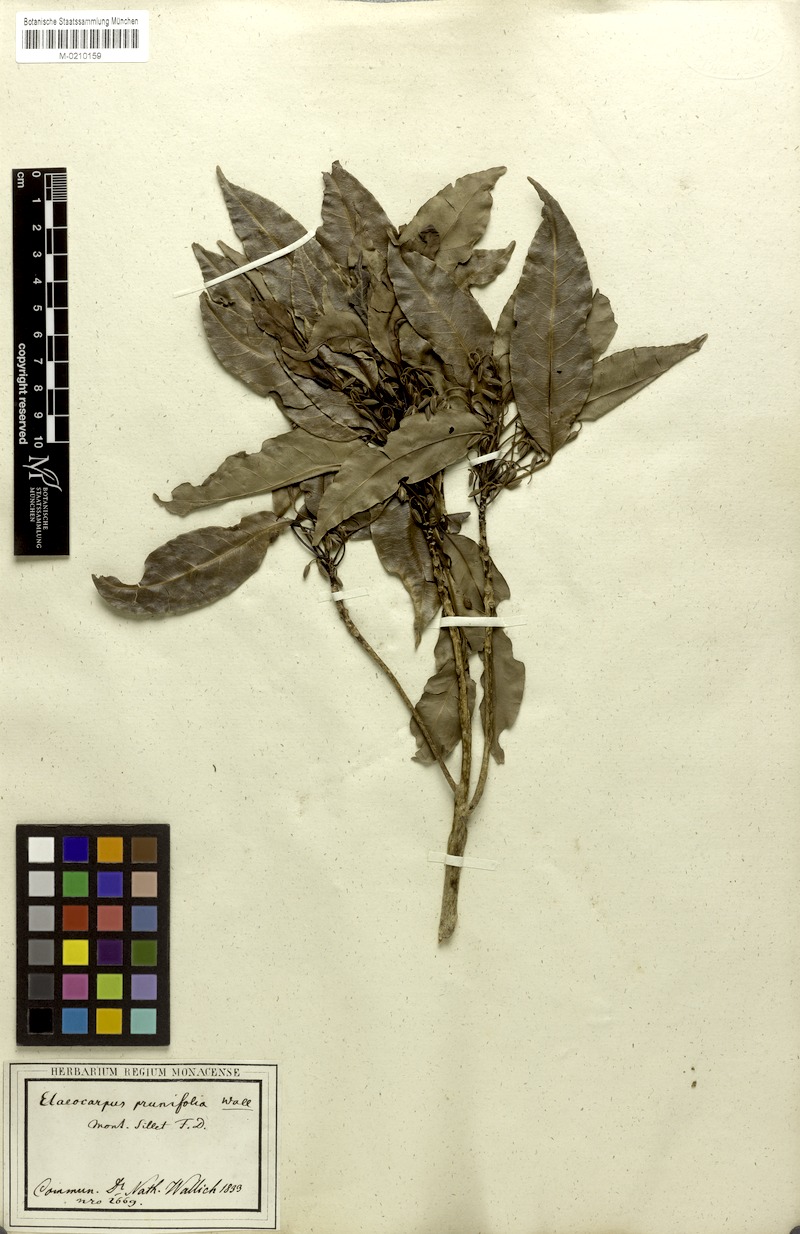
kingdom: Plantae
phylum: Tracheophyta
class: Magnoliopsida
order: Oxalidales
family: Elaeocarpaceae
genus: Elaeocarpus
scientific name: Elaeocarpus prunifolius
